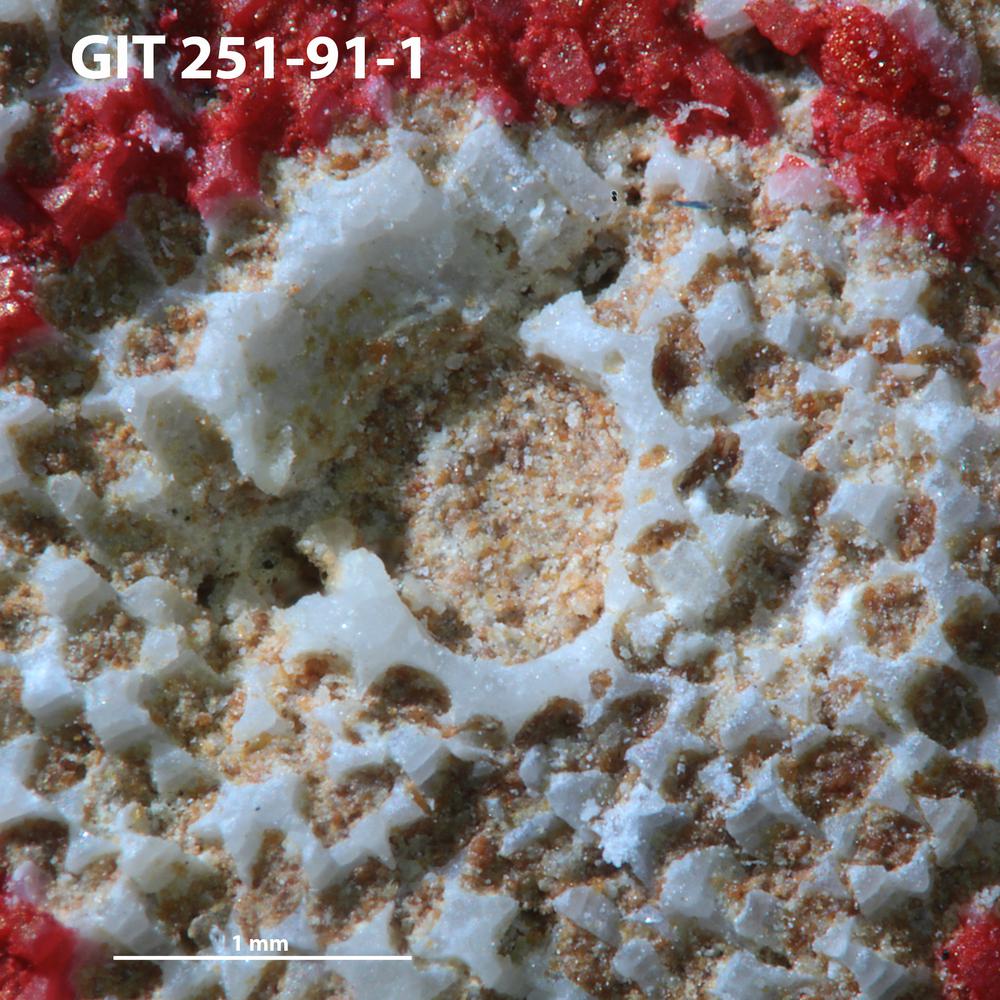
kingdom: Animalia
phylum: Annelida
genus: Anoigmaichnus
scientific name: Anoigmaichnus
